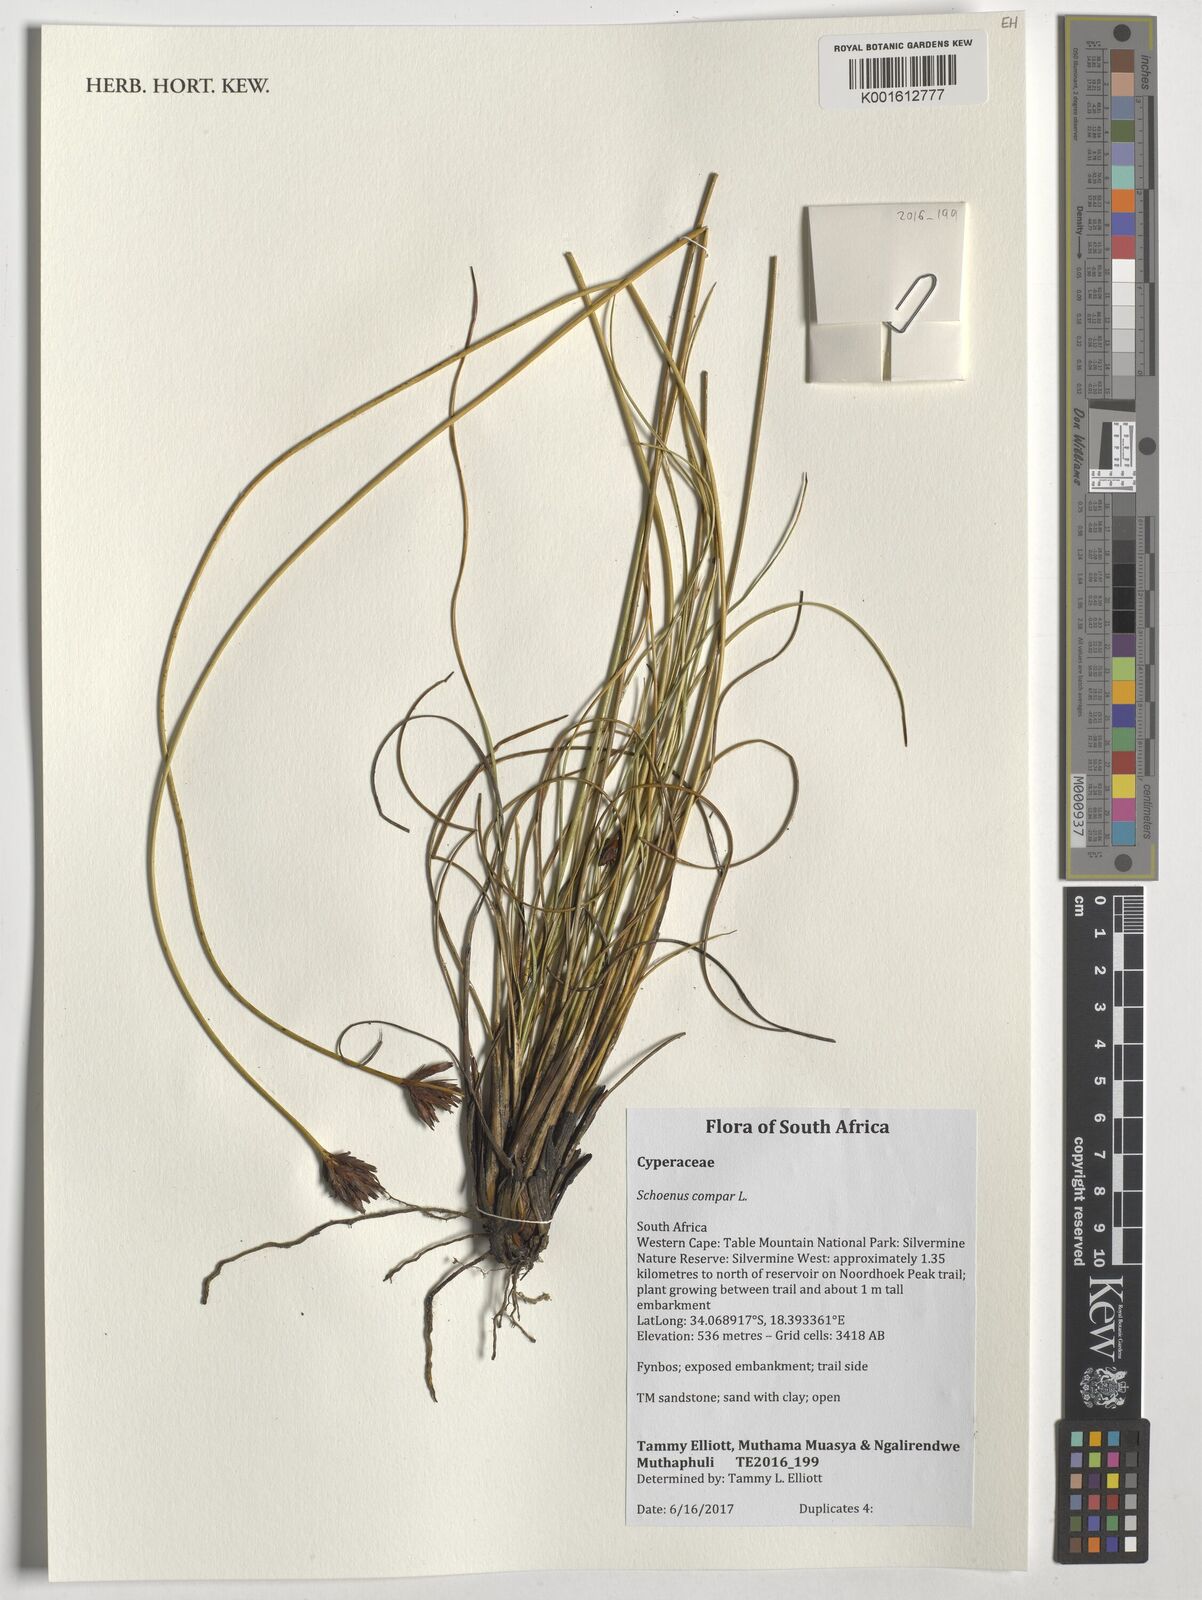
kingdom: Plantae
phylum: Tracheophyta
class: Liliopsida
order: Poales
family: Cyperaceae
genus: Schoenus
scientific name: Schoenus compar
